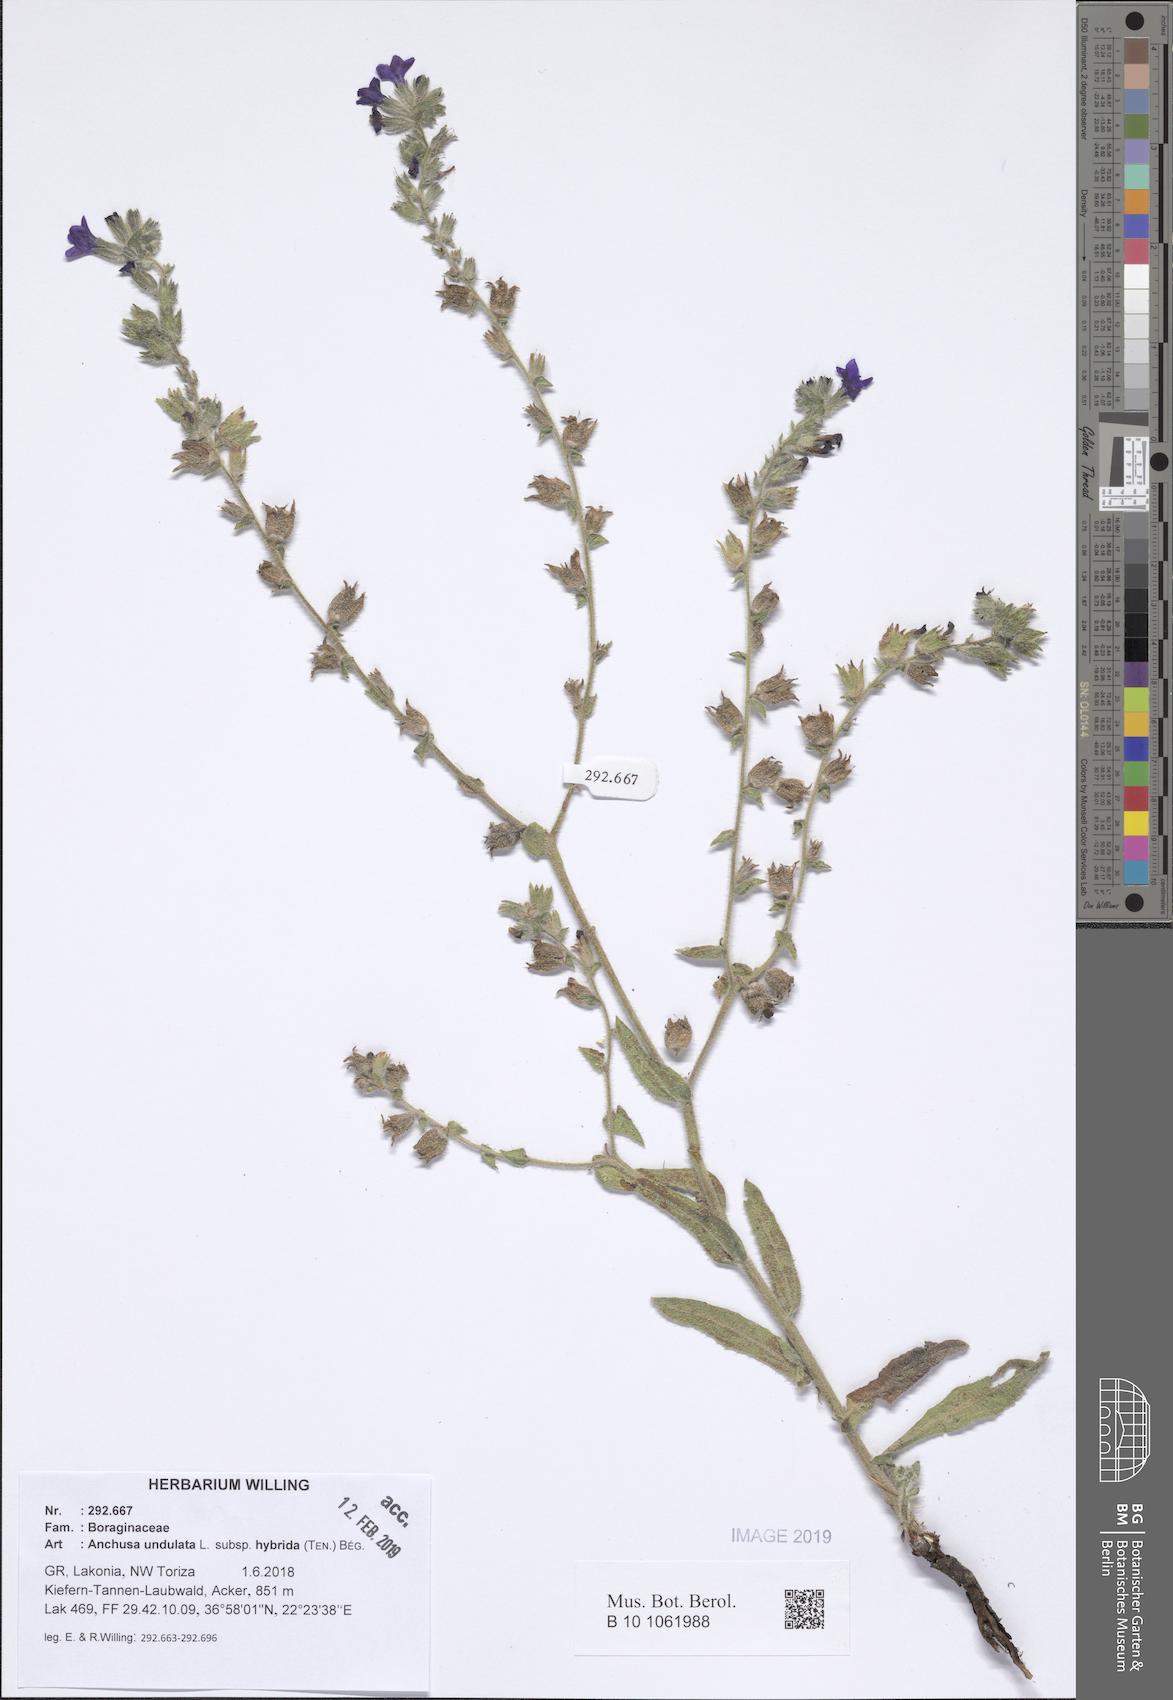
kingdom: Plantae
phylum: Tracheophyta
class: Magnoliopsida
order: Boraginales
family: Boraginaceae
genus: Anchusa
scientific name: Anchusa undulata
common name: Undulate alkanet
